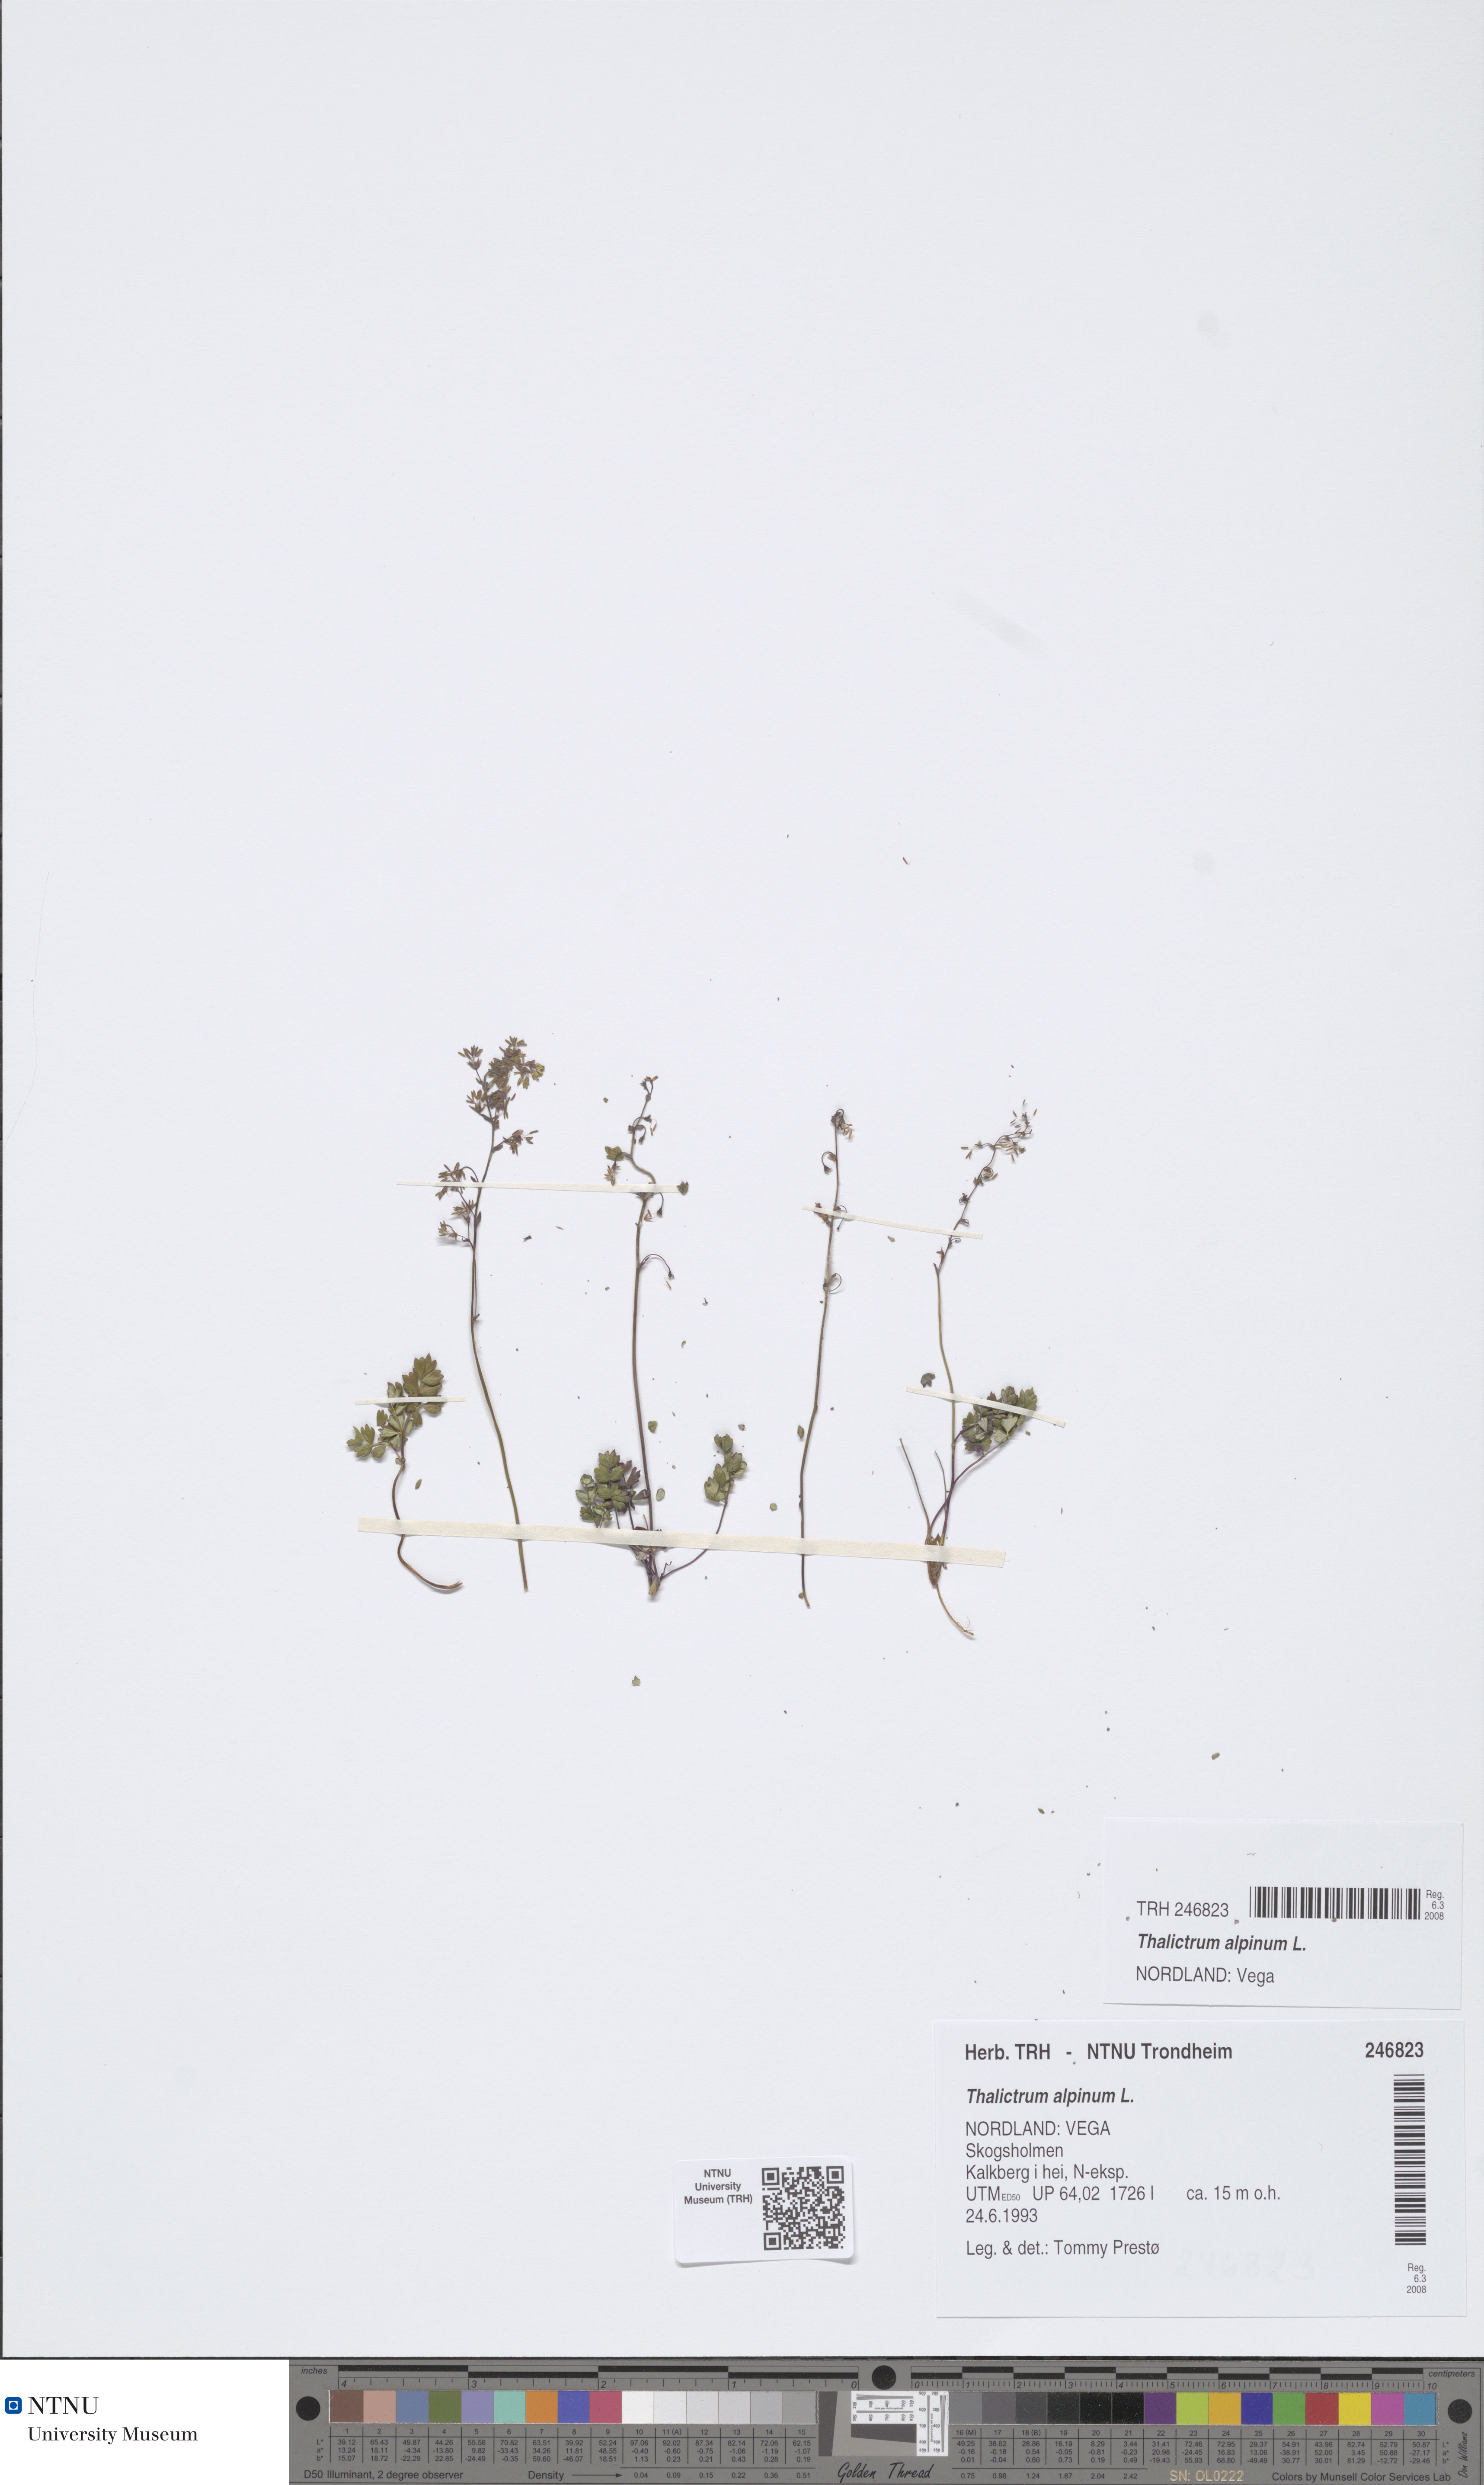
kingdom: Plantae
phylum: Tracheophyta
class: Magnoliopsida
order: Ranunculales
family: Ranunculaceae
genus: Thalictrum
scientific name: Thalictrum alpinum
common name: Alpine meadow-rue
